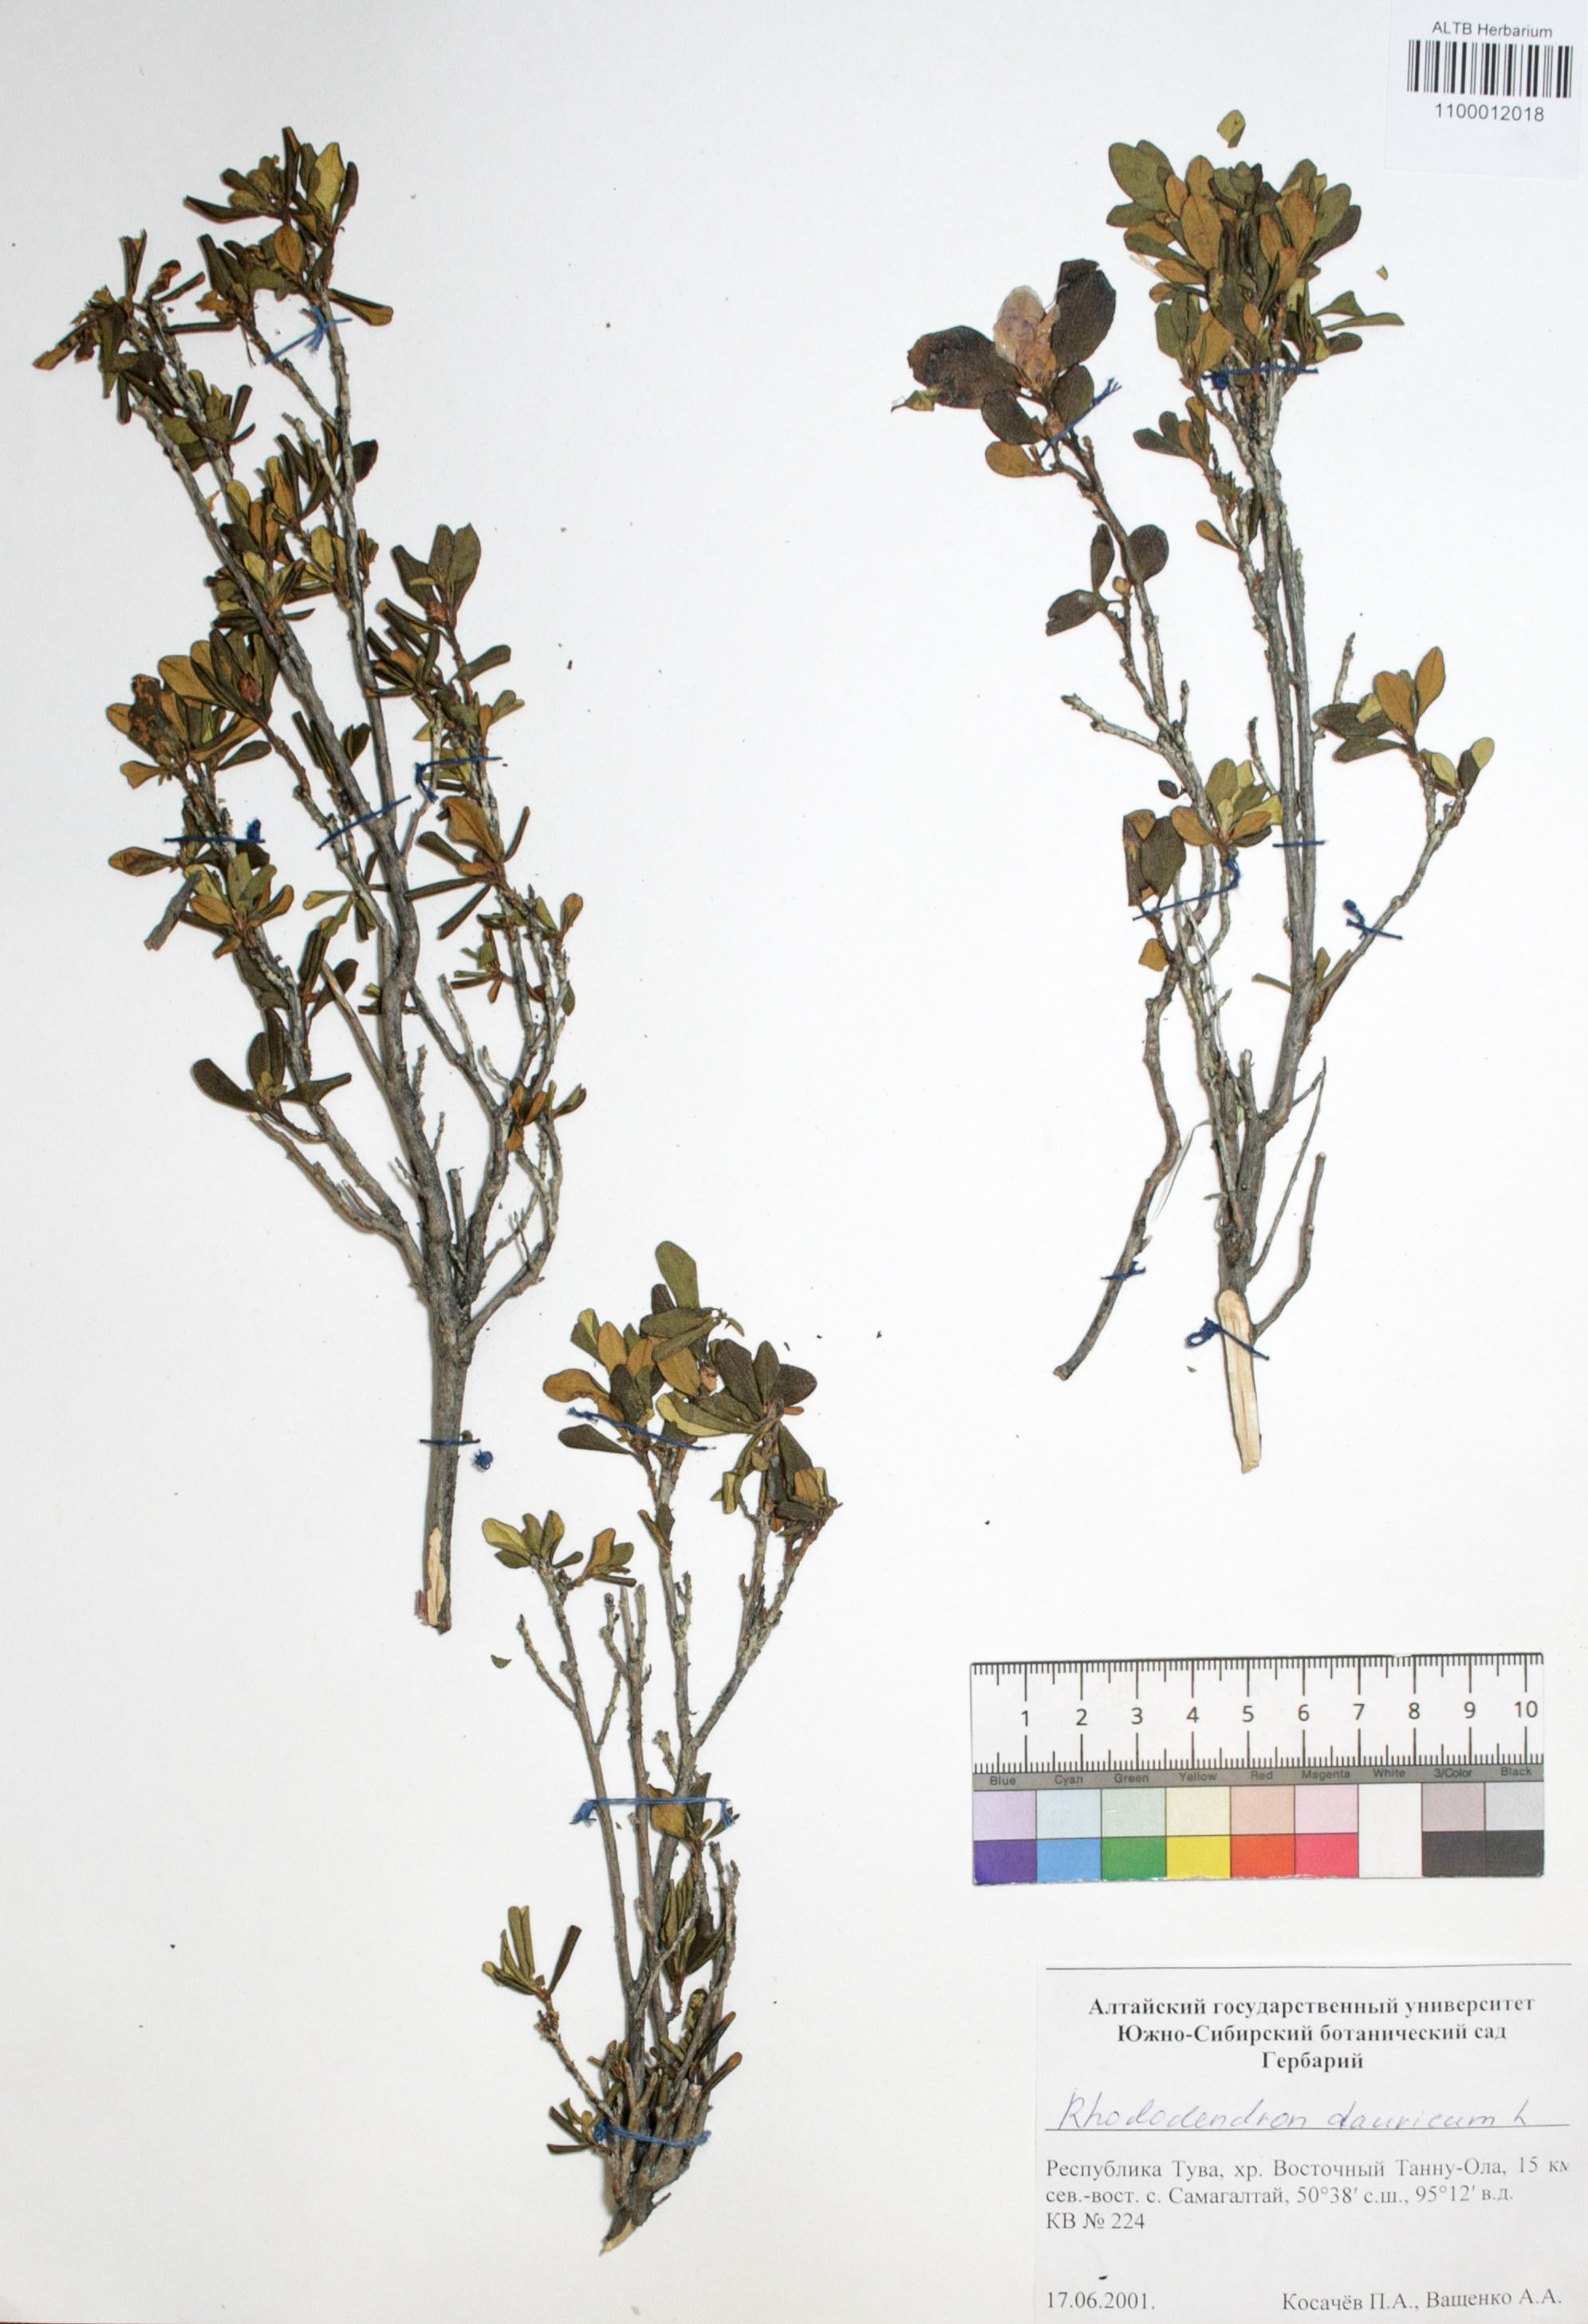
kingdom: Plantae
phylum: Tracheophyta
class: Magnoliopsida
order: Ericales
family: Ericaceae
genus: Rhododendron
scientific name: Rhododendron dahuricum
